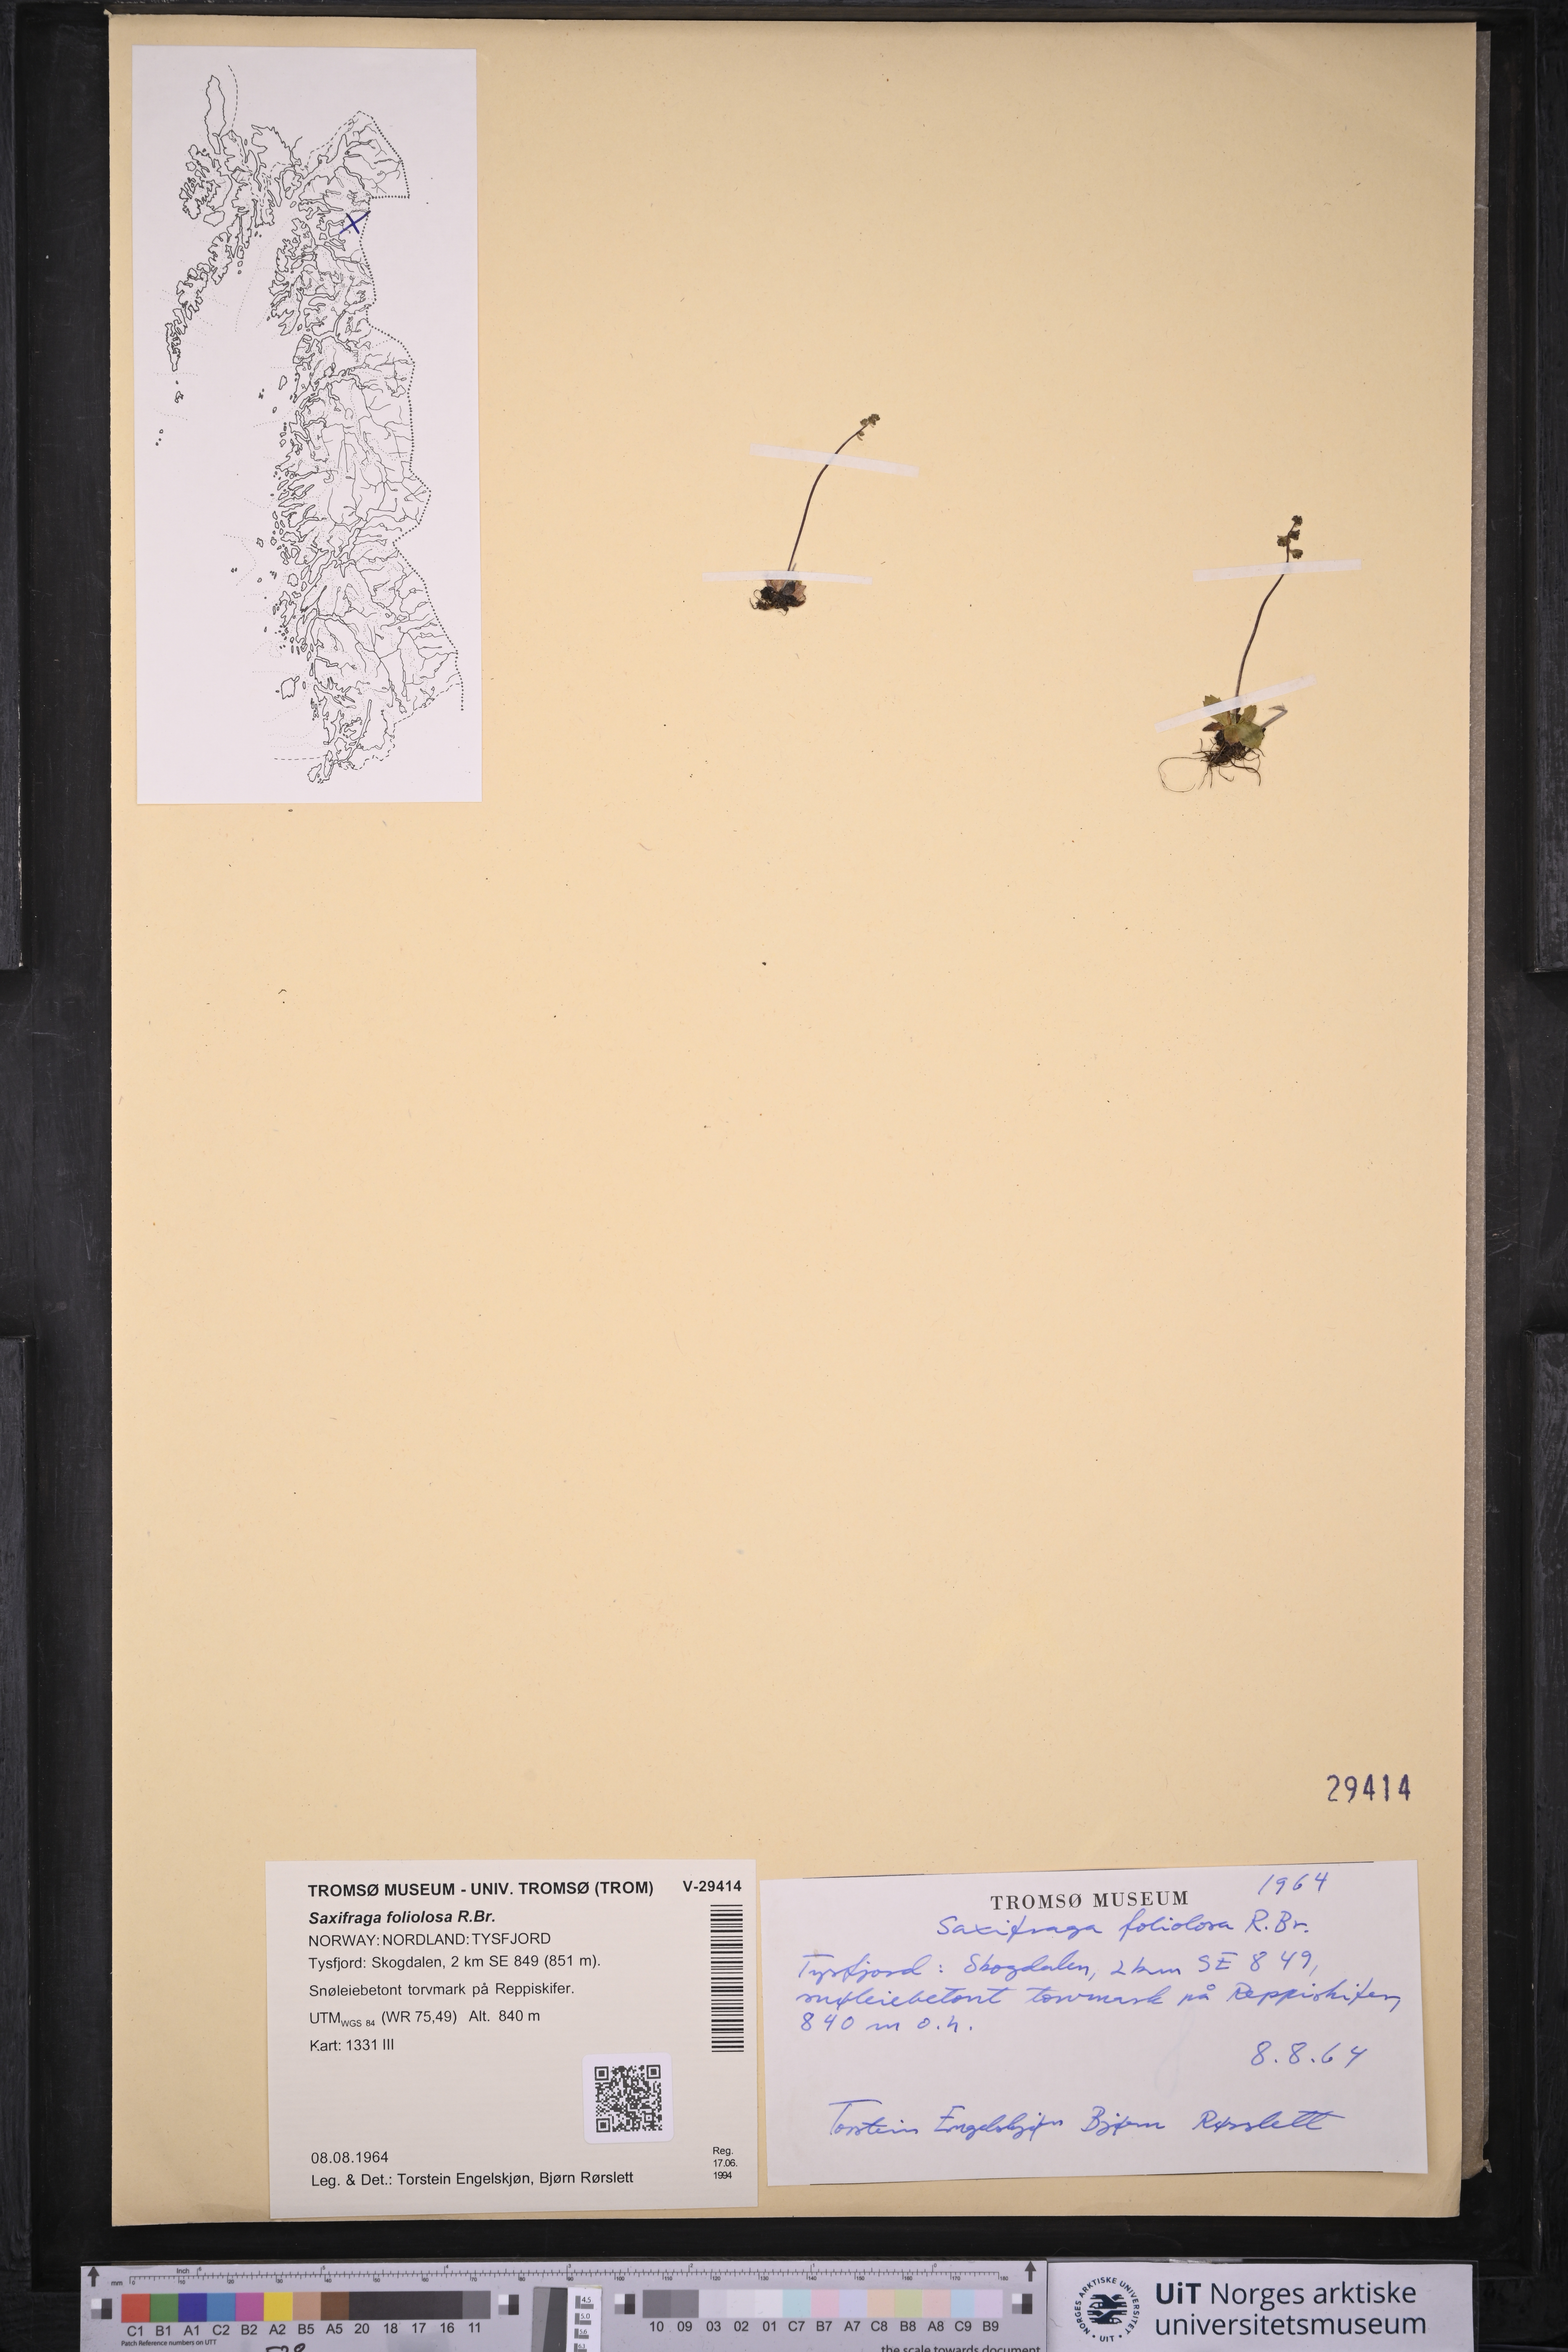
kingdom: Plantae
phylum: Tracheophyta
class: Magnoliopsida
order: Saxifragales
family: Saxifragaceae
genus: Micranthes
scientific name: Micranthes foliolosa
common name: Leafystem saxifrage
